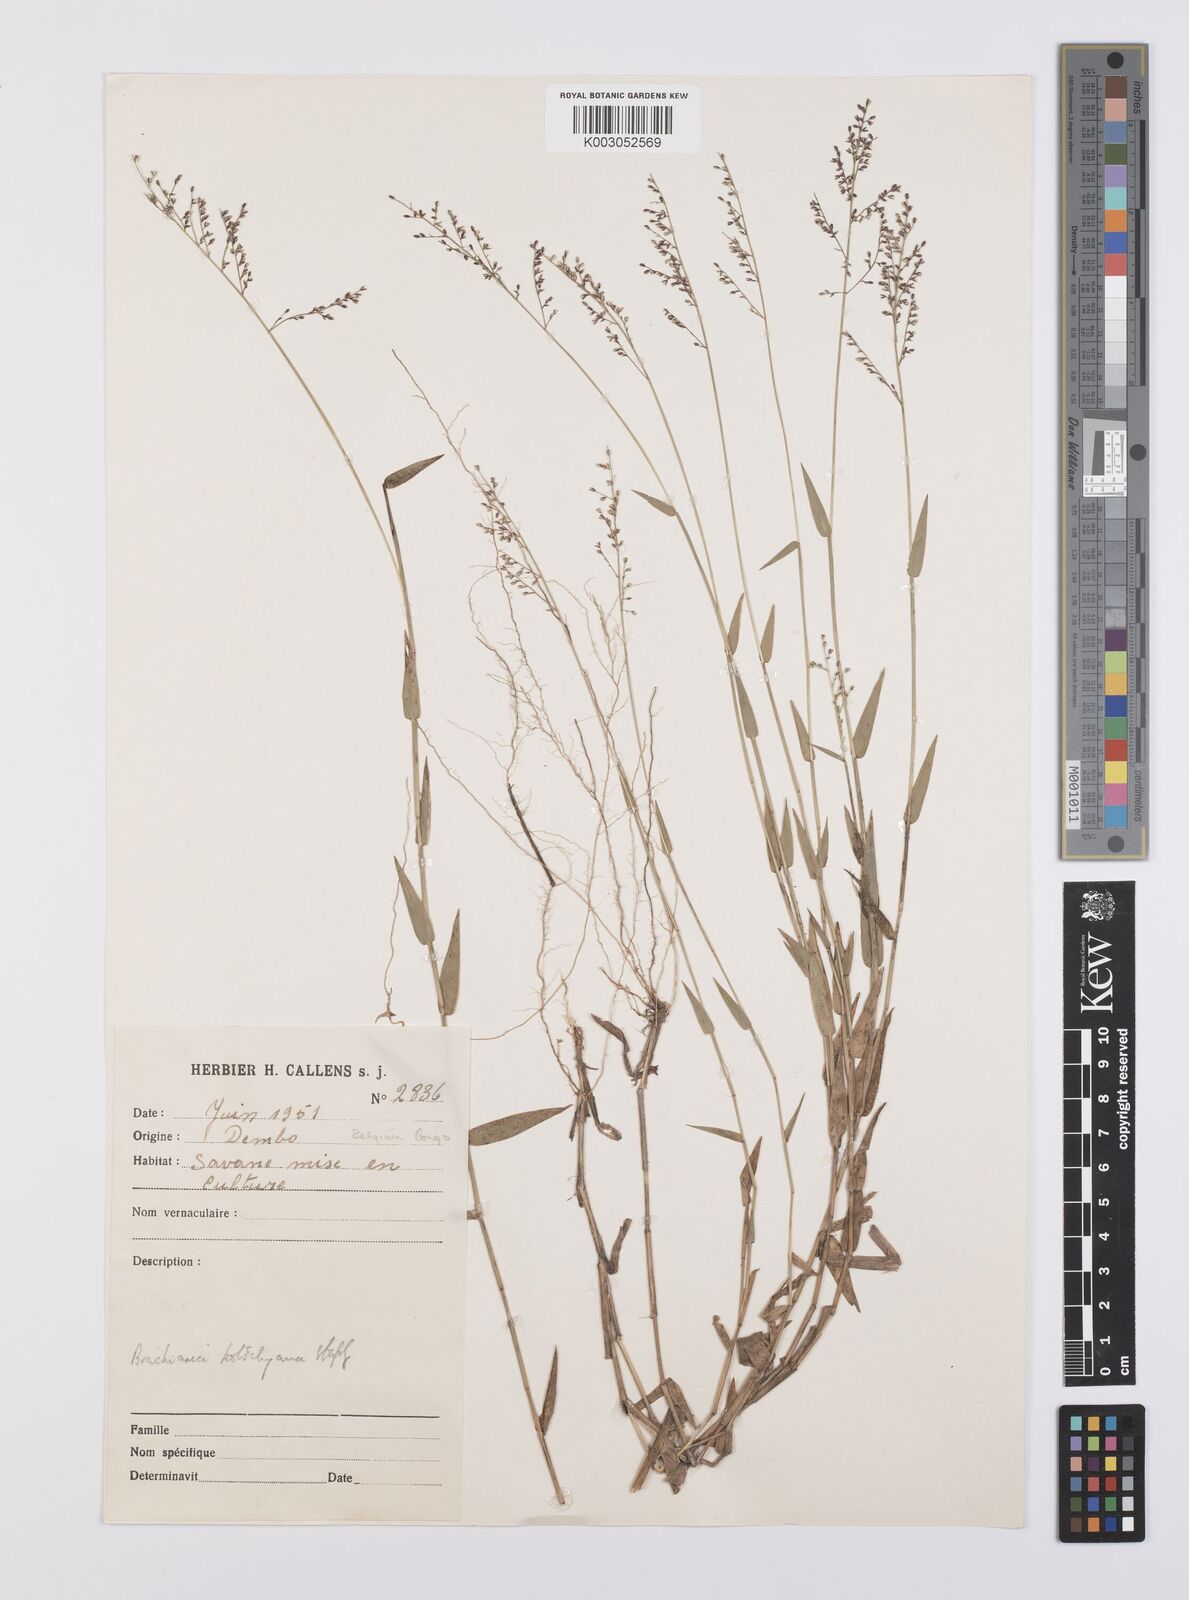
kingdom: Plantae
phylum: Tracheophyta
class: Liliopsida
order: Poales
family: Poaceae
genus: Urochloa
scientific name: Urochloa comata
